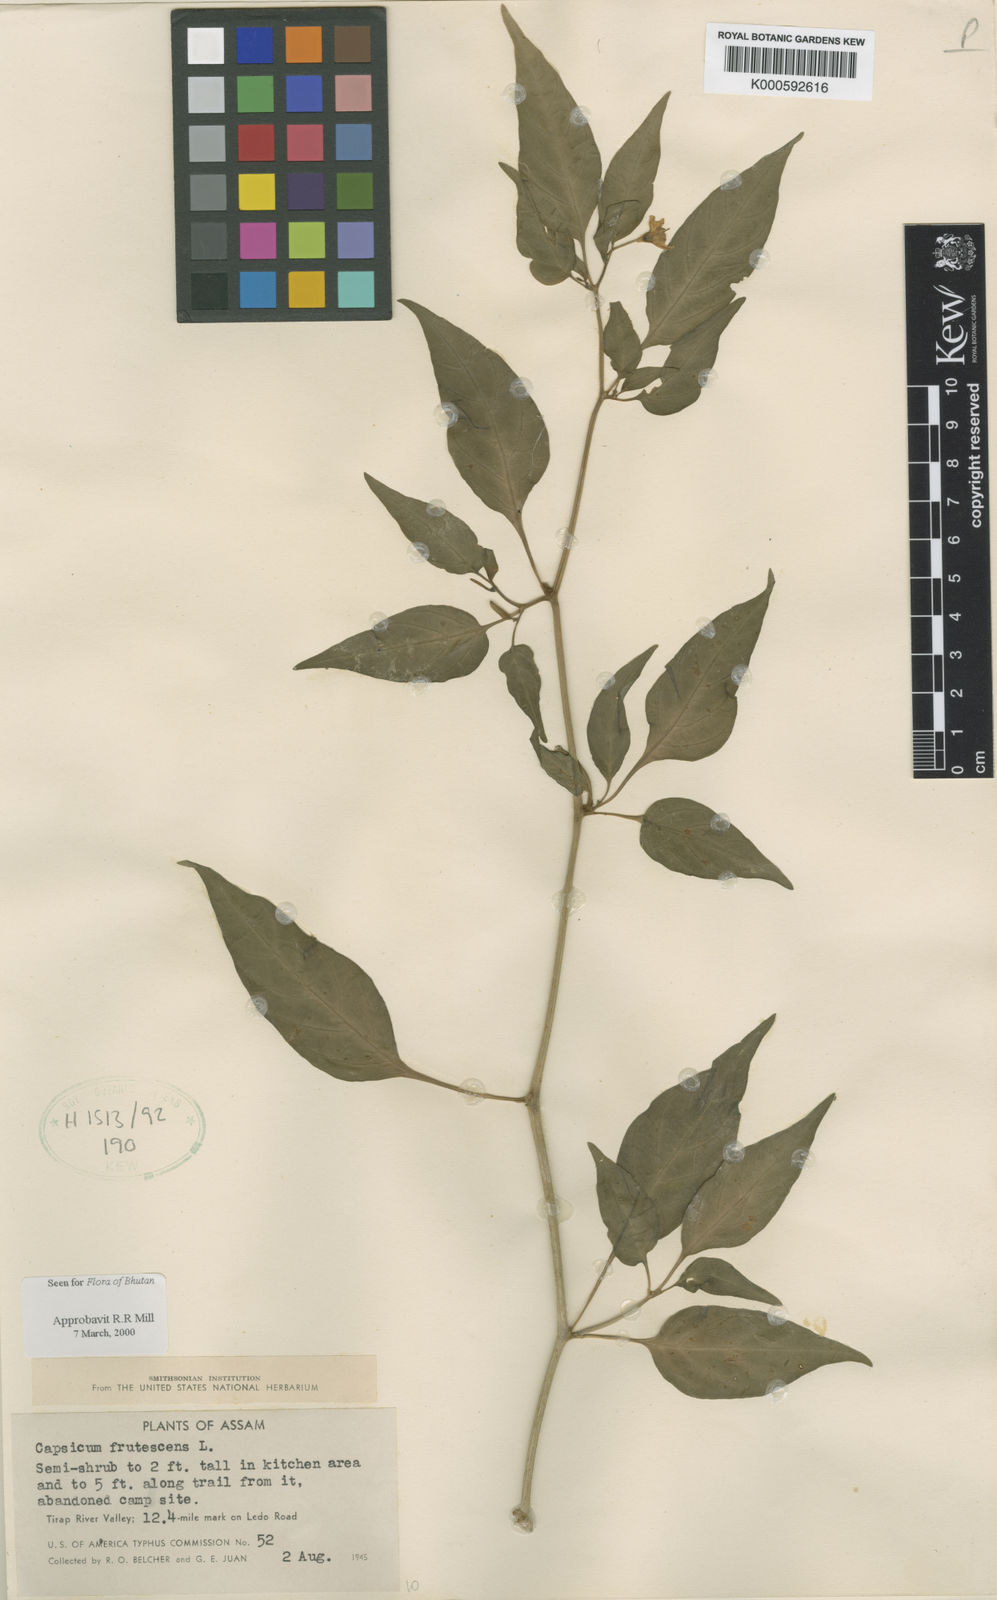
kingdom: Plantae
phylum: Tracheophyta
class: Magnoliopsida
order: Solanales
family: Solanaceae
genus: Capsicum
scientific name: Capsicum frutescens
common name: Bird pepper
